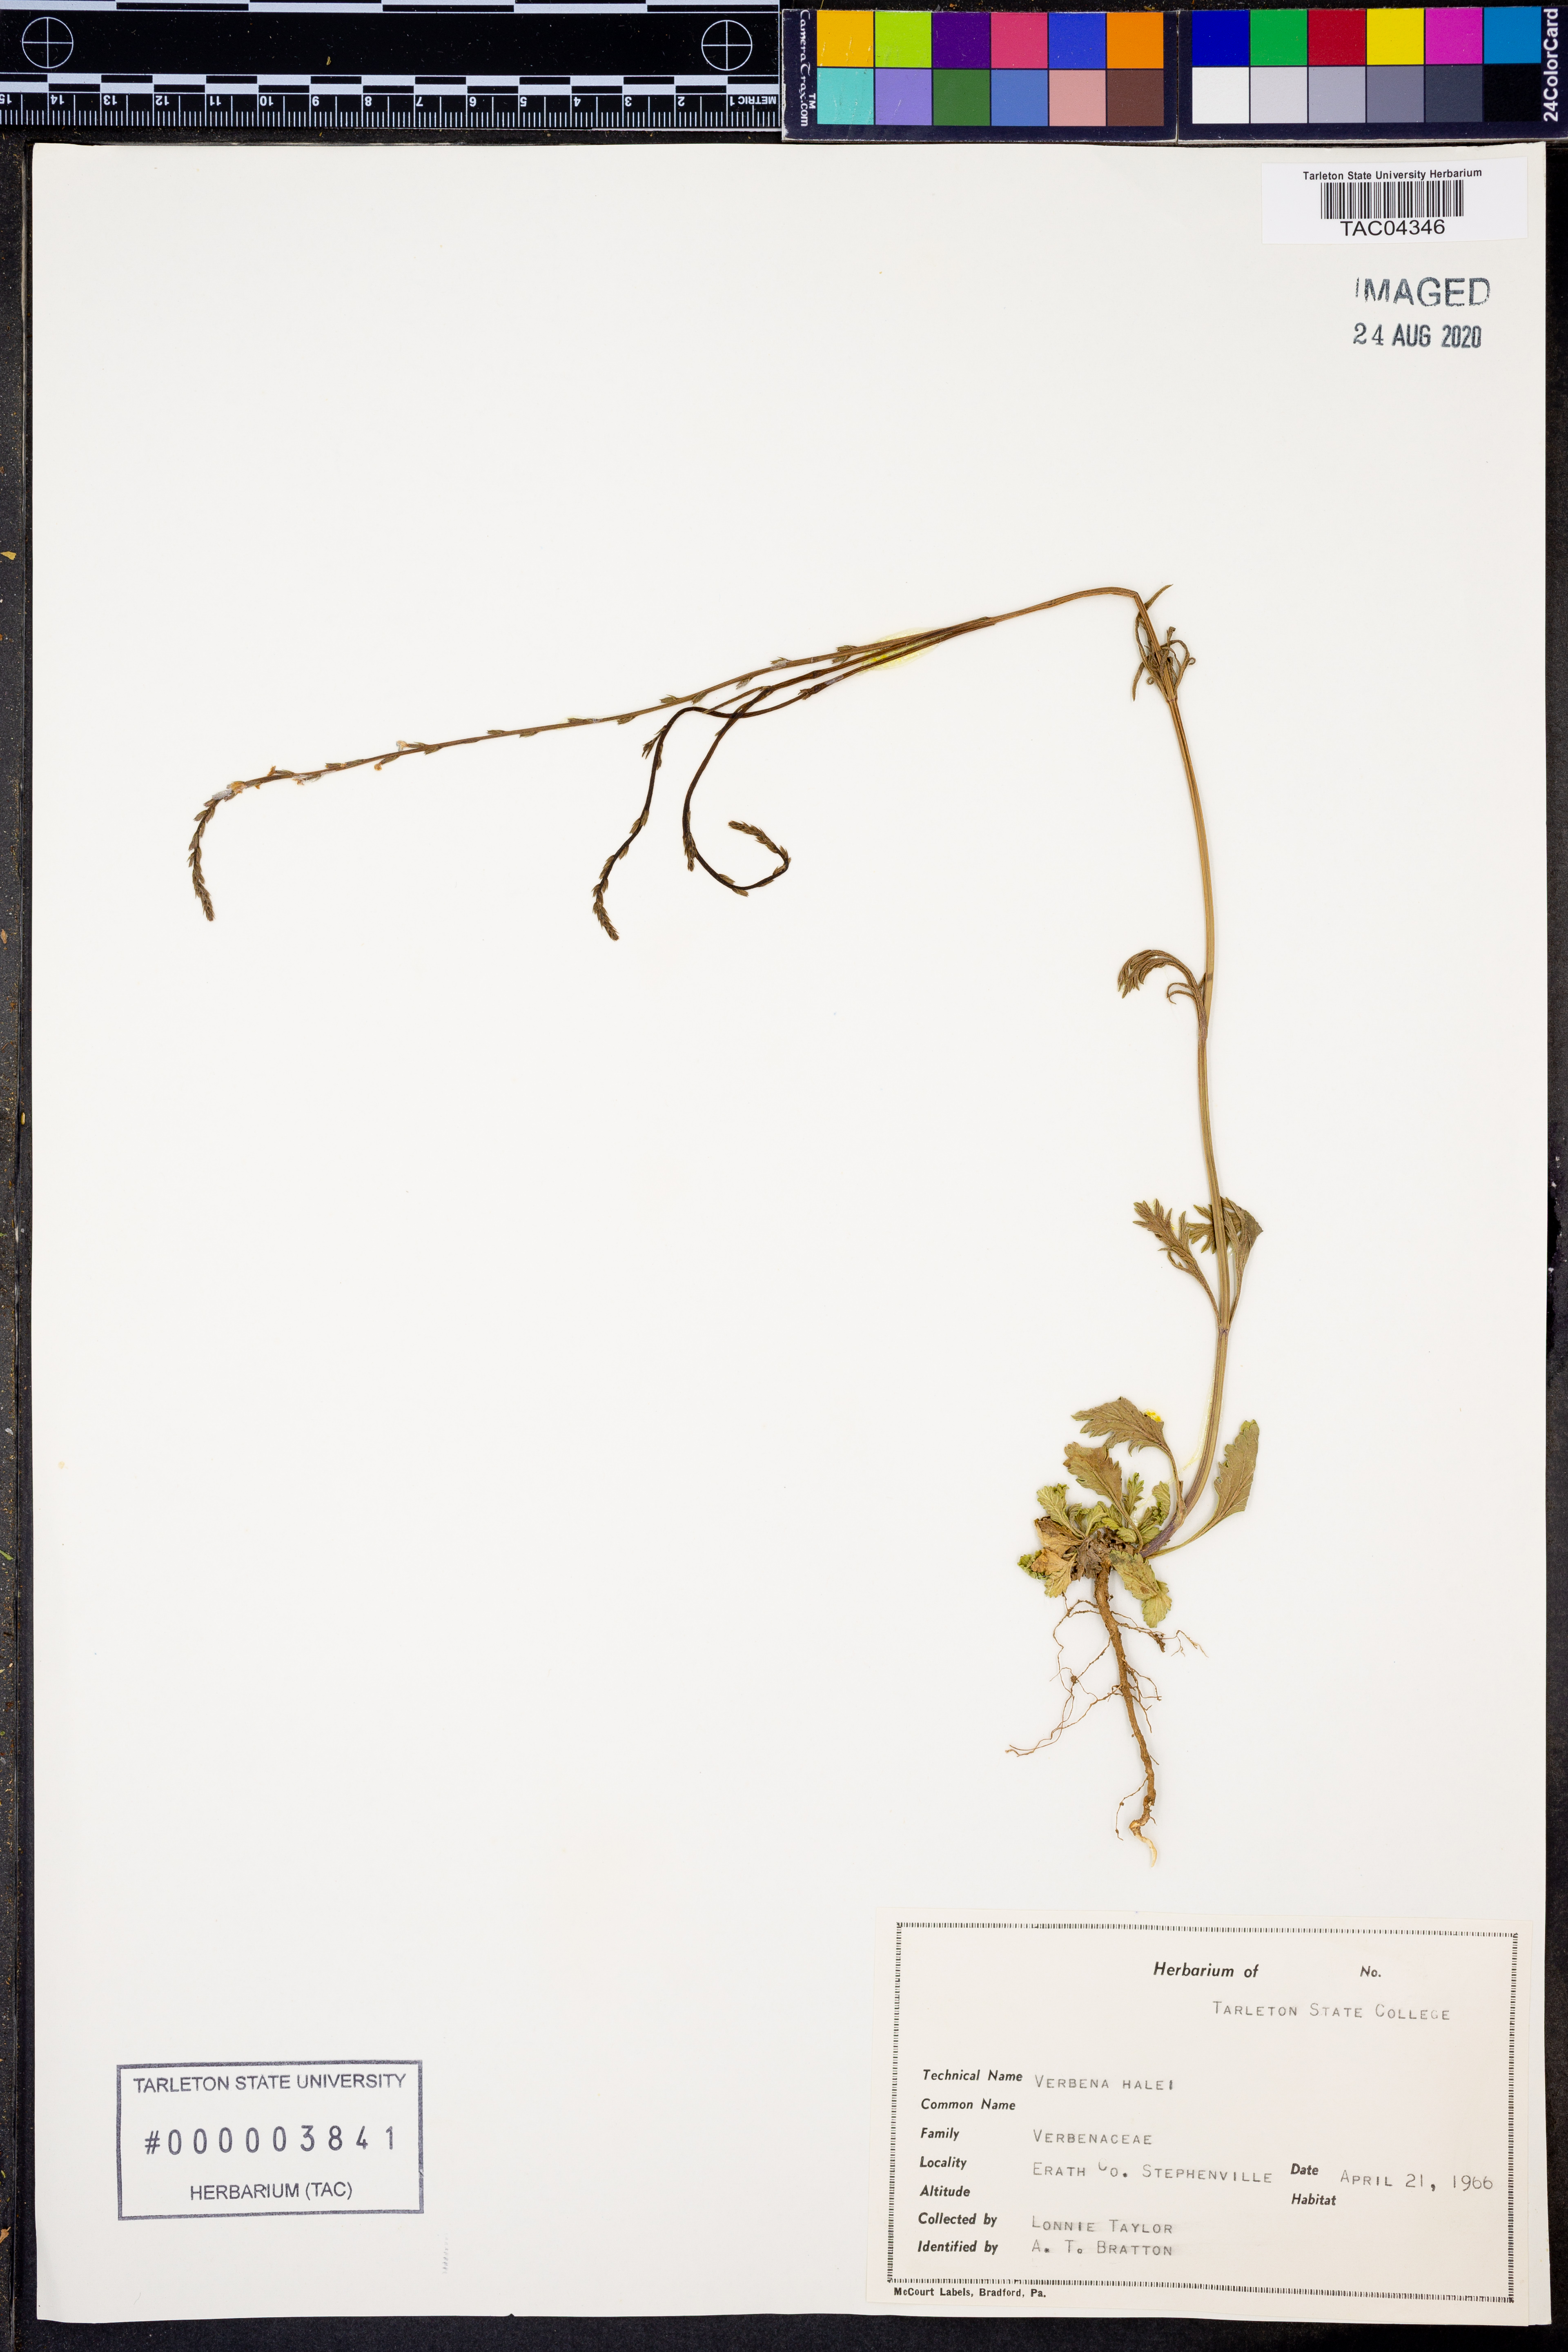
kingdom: Plantae
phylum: Tracheophyta
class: Magnoliopsida
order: Lamiales
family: Verbenaceae
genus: Verbena
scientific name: Verbena halei
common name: Texas vervain
